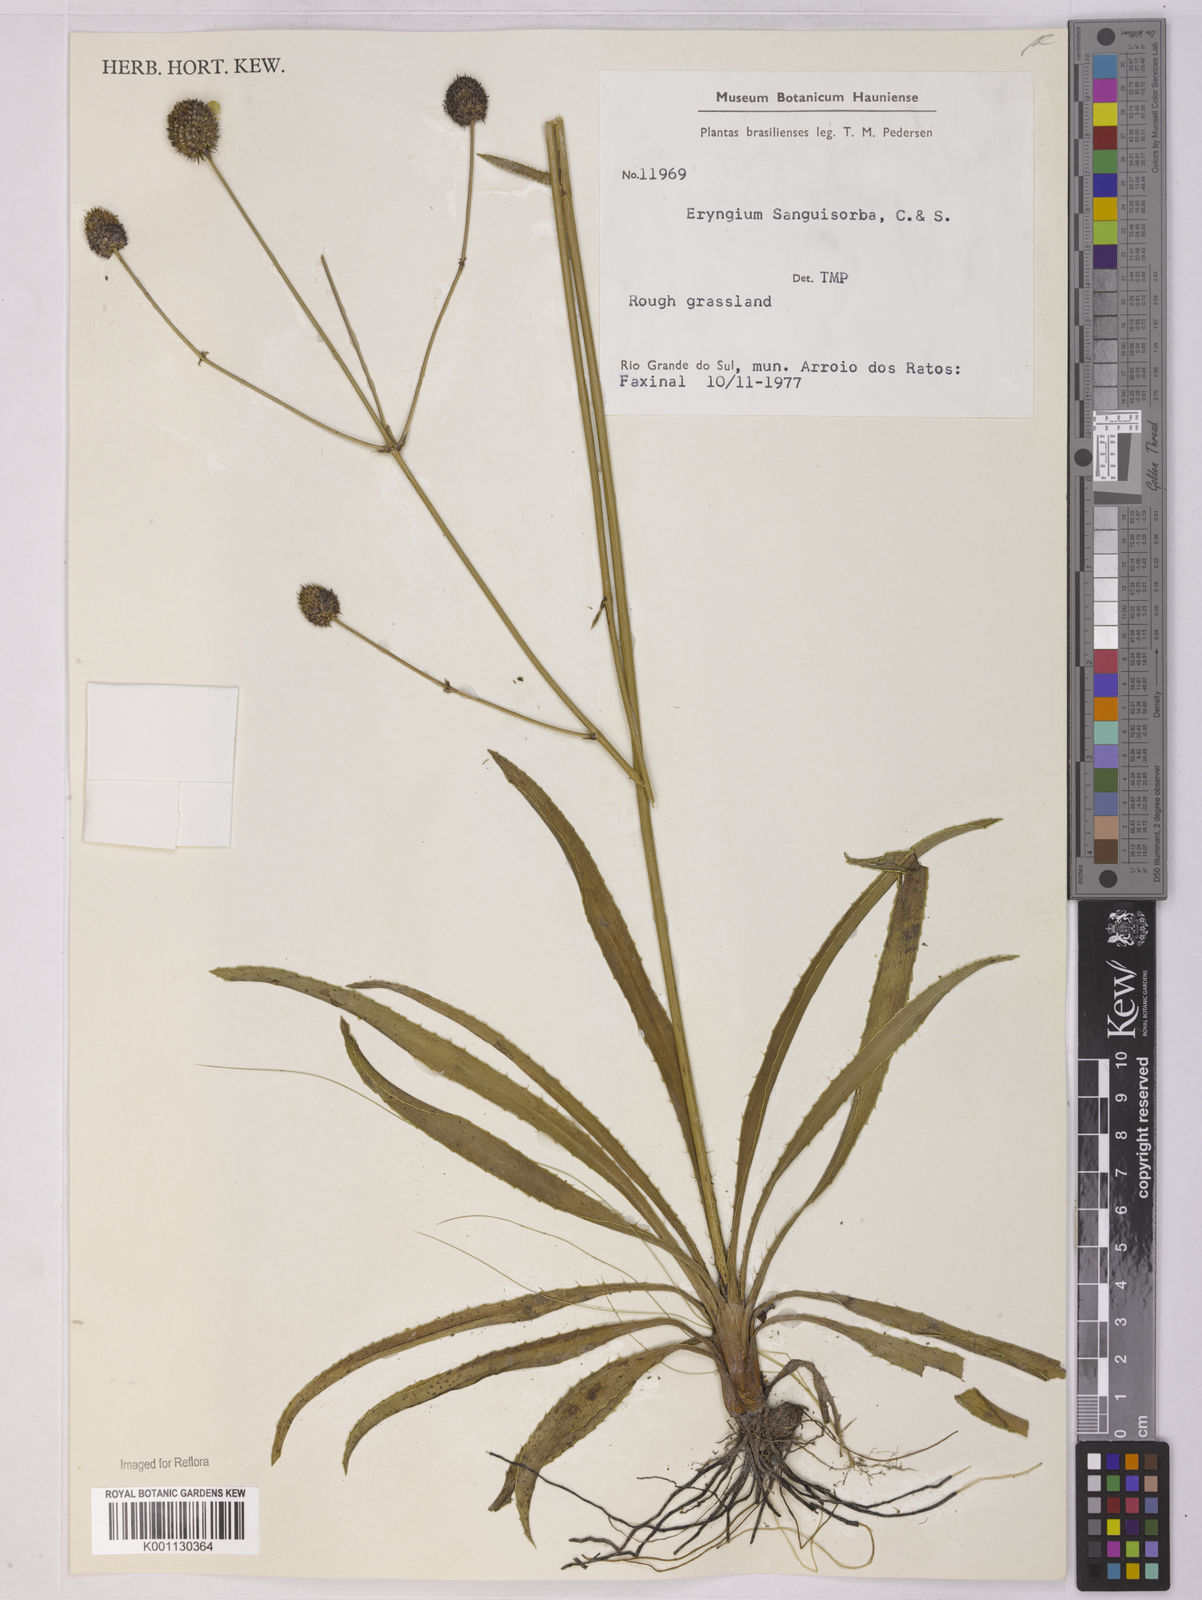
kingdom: Plantae
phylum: Tracheophyta
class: Magnoliopsida
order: Apiales
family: Apiaceae
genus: Eryngium
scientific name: Eryngium sanguisorba
